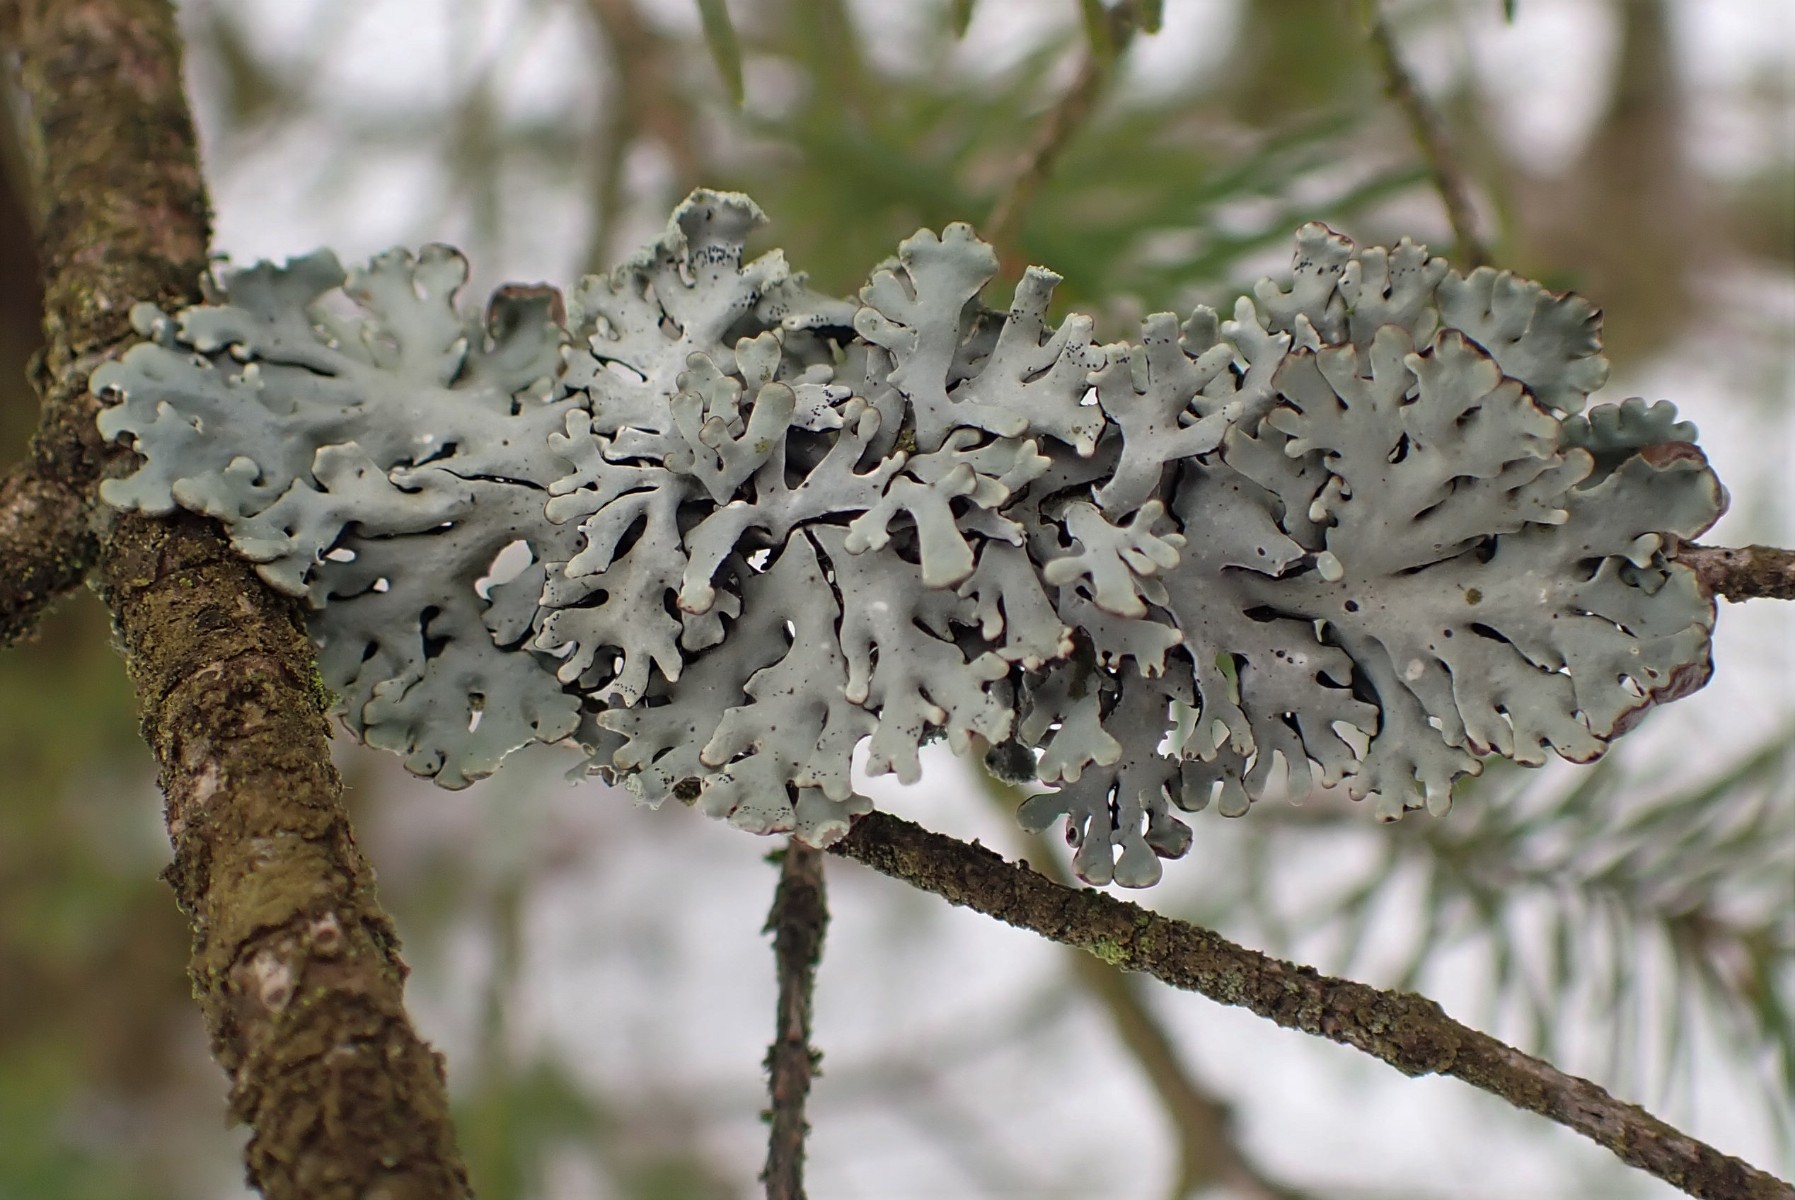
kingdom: Fungi
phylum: Ascomycota
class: Lecanoromycetes
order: Lecanorales
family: Parmeliaceae
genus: Hypogymnia
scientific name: Hypogymnia physodes
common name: almindelig kvistlav
